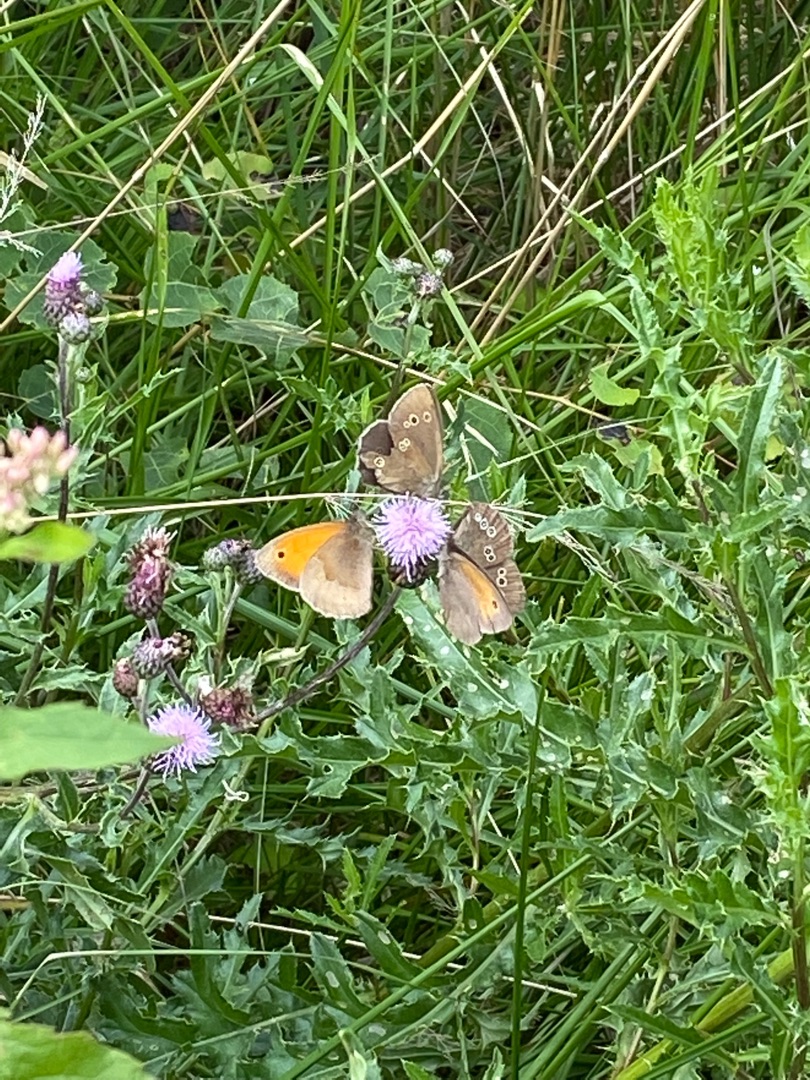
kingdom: Animalia
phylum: Arthropoda
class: Insecta
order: Lepidoptera
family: Nymphalidae
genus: Maniola
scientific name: Maniola jurtina
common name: Græsrandøje
